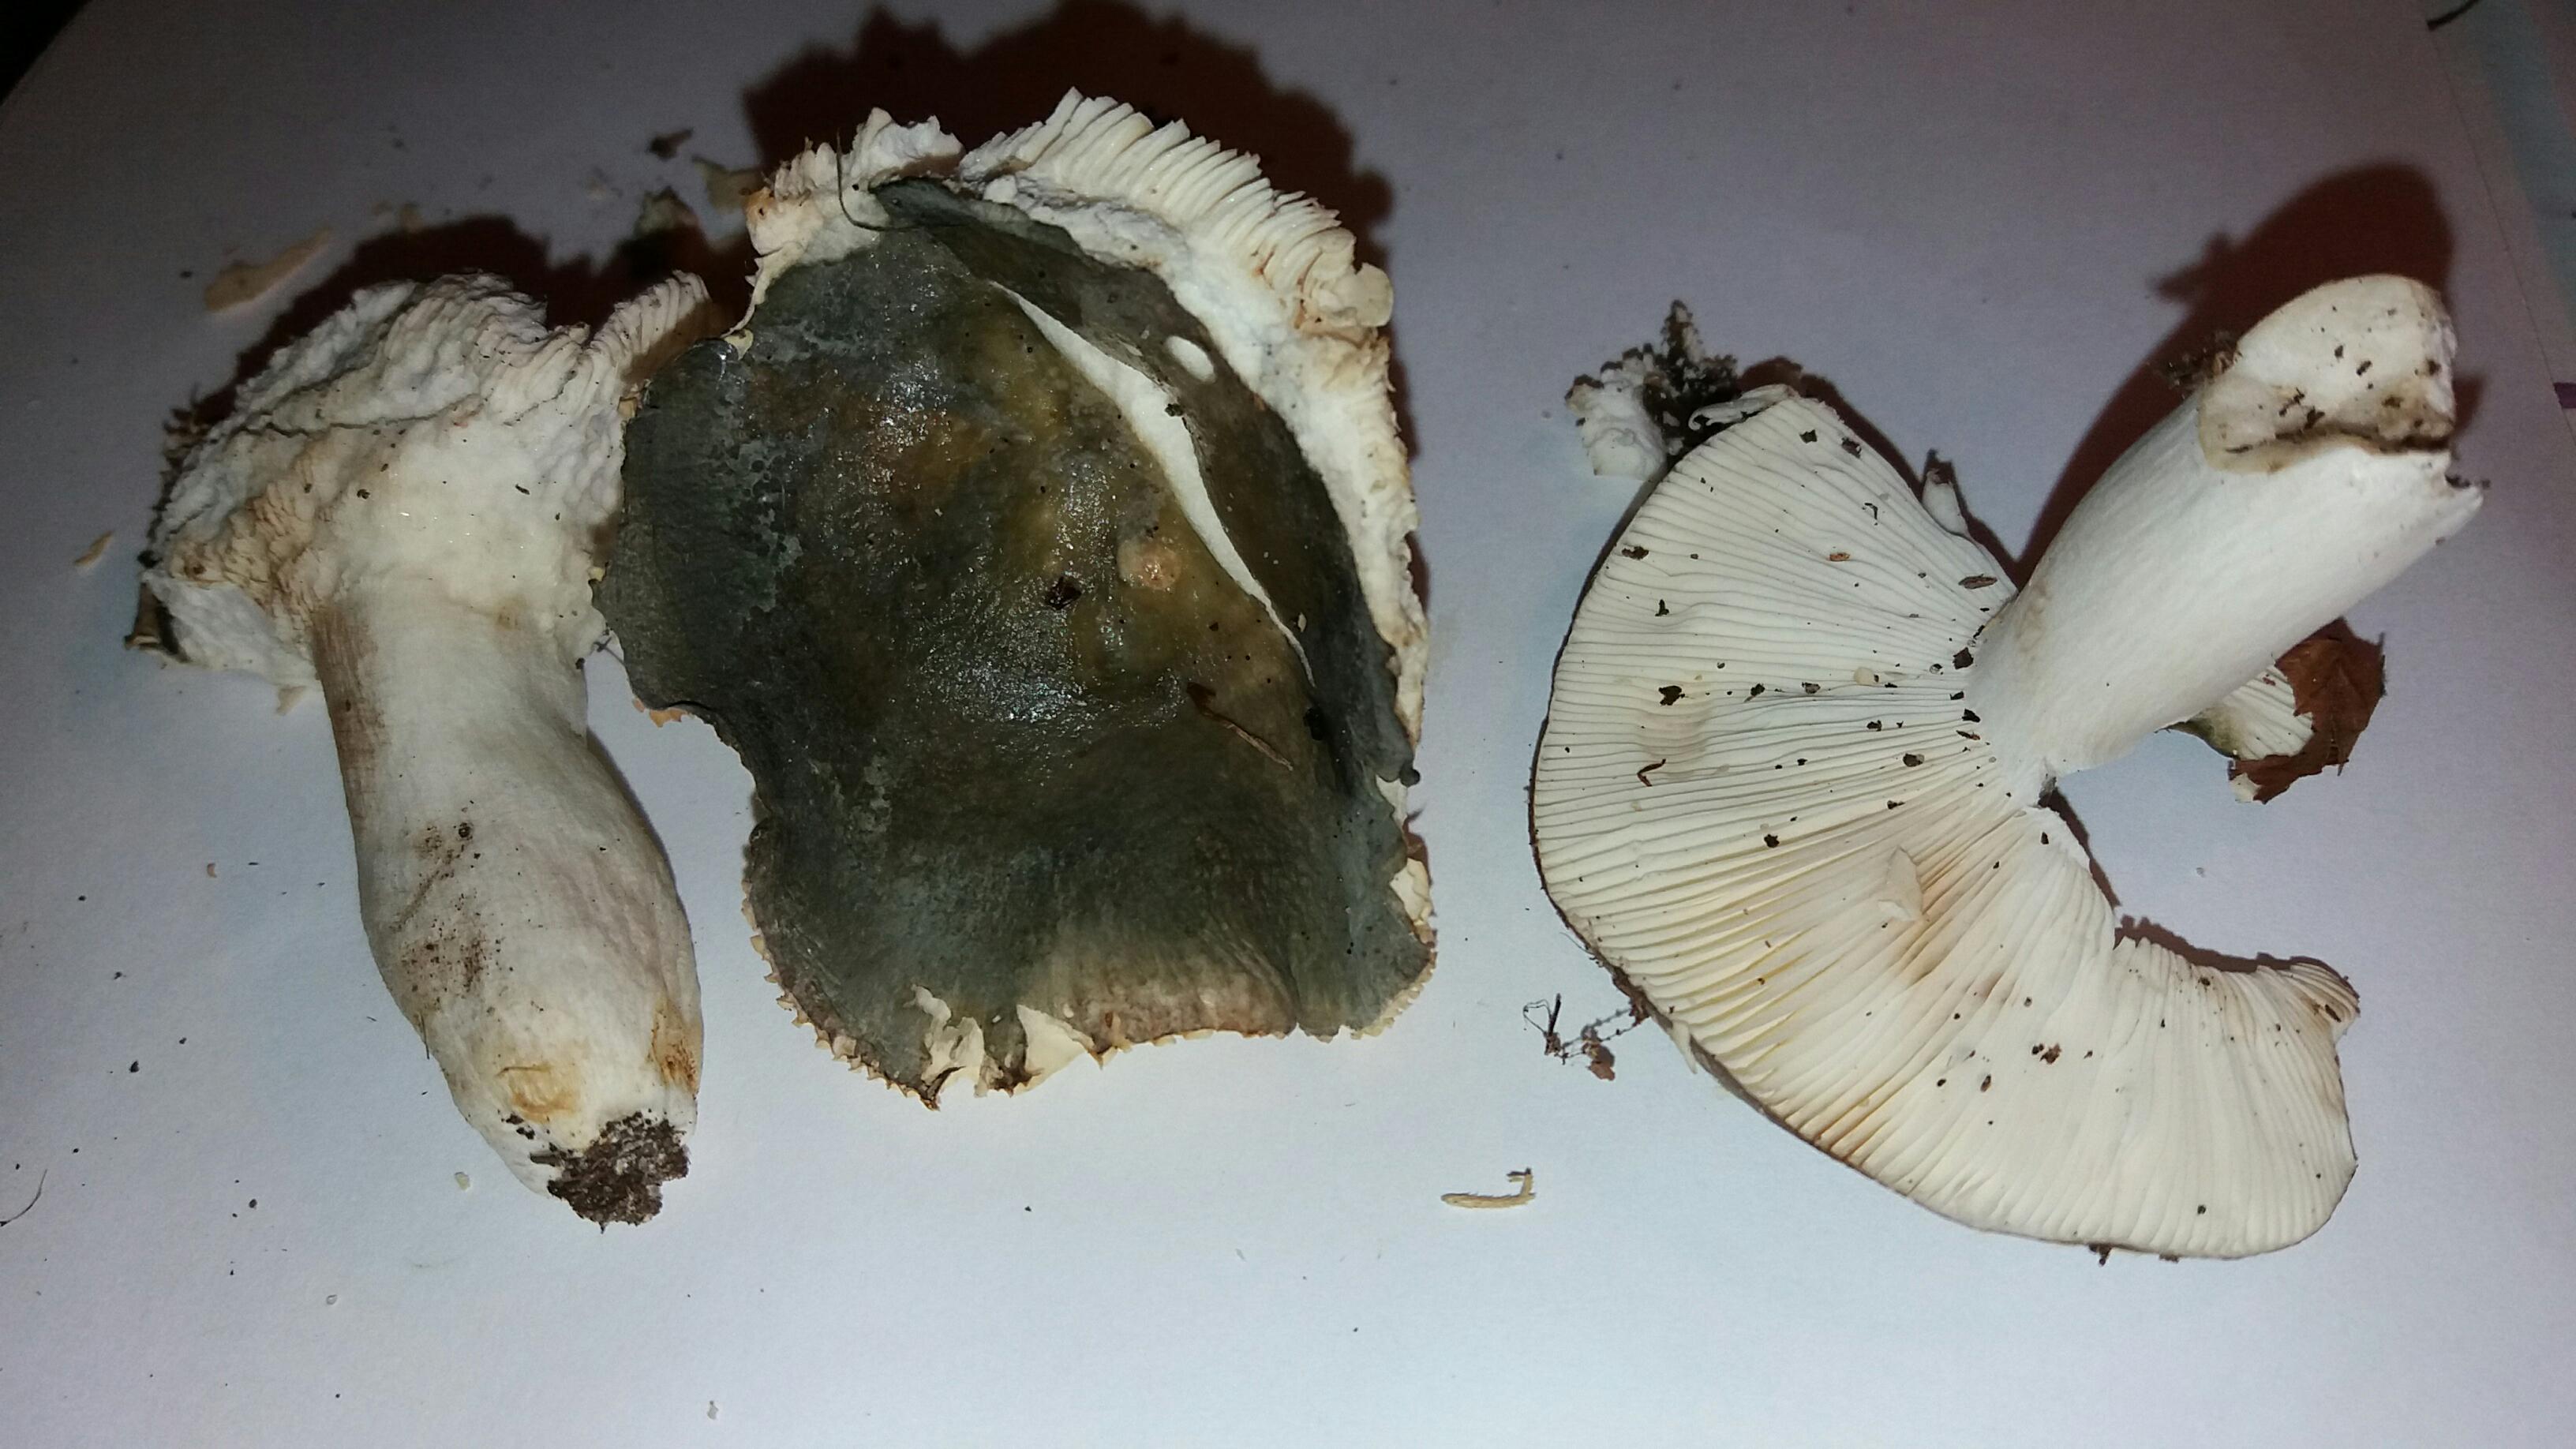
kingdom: Fungi
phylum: Basidiomycota
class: Agaricomycetes
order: Russulales
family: Russulaceae
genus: Russula
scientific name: Russula
